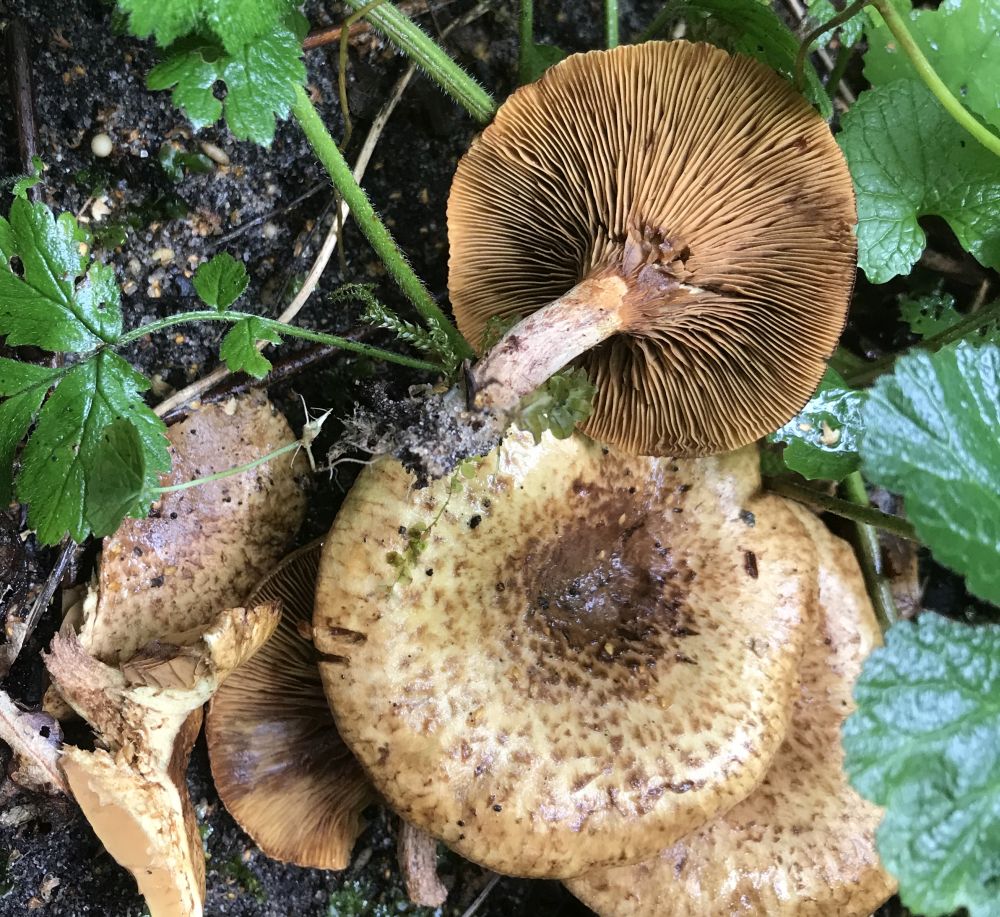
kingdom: Fungi
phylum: Basidiomycota
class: Agaricomycetes
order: Boletales
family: Paxillaceae
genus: Paxillus
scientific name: Paxillus rubicundulus
